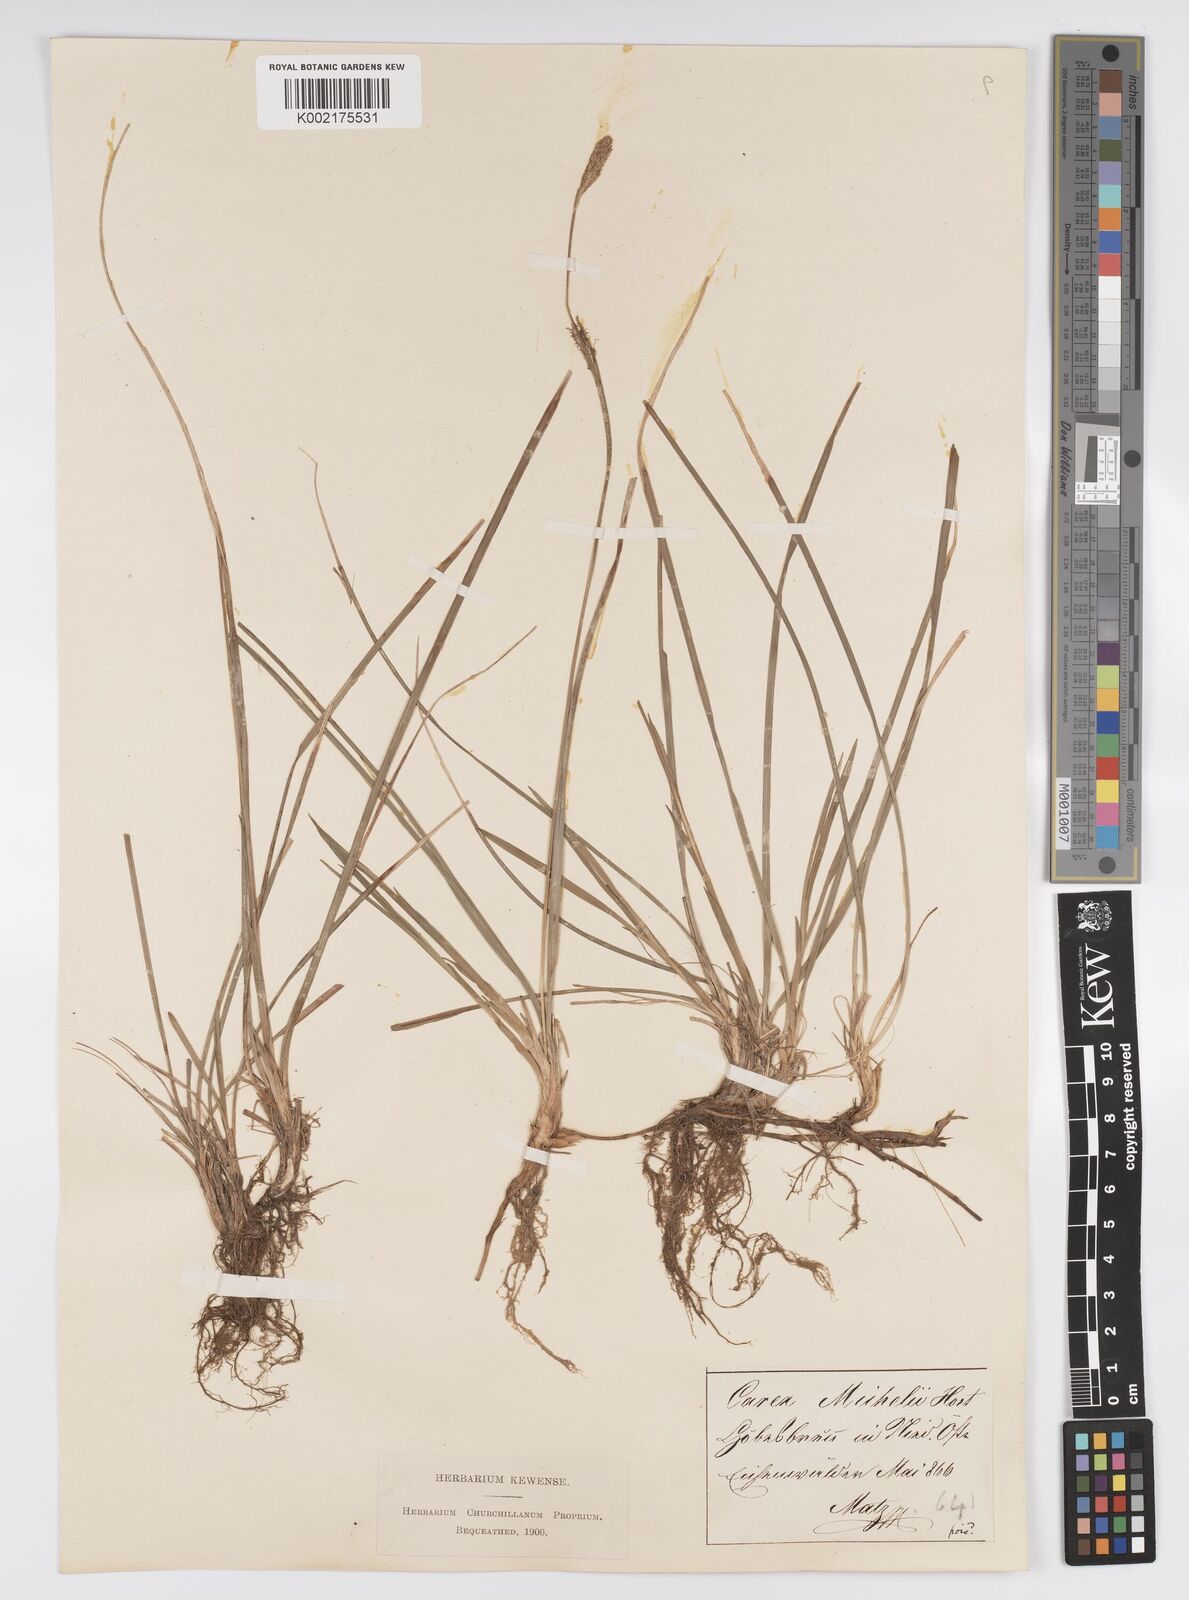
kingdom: Plantae
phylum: Tracheophyta
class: Liliopsida
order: Poales
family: Cyperaceae
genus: Carex
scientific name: Carex michelii
